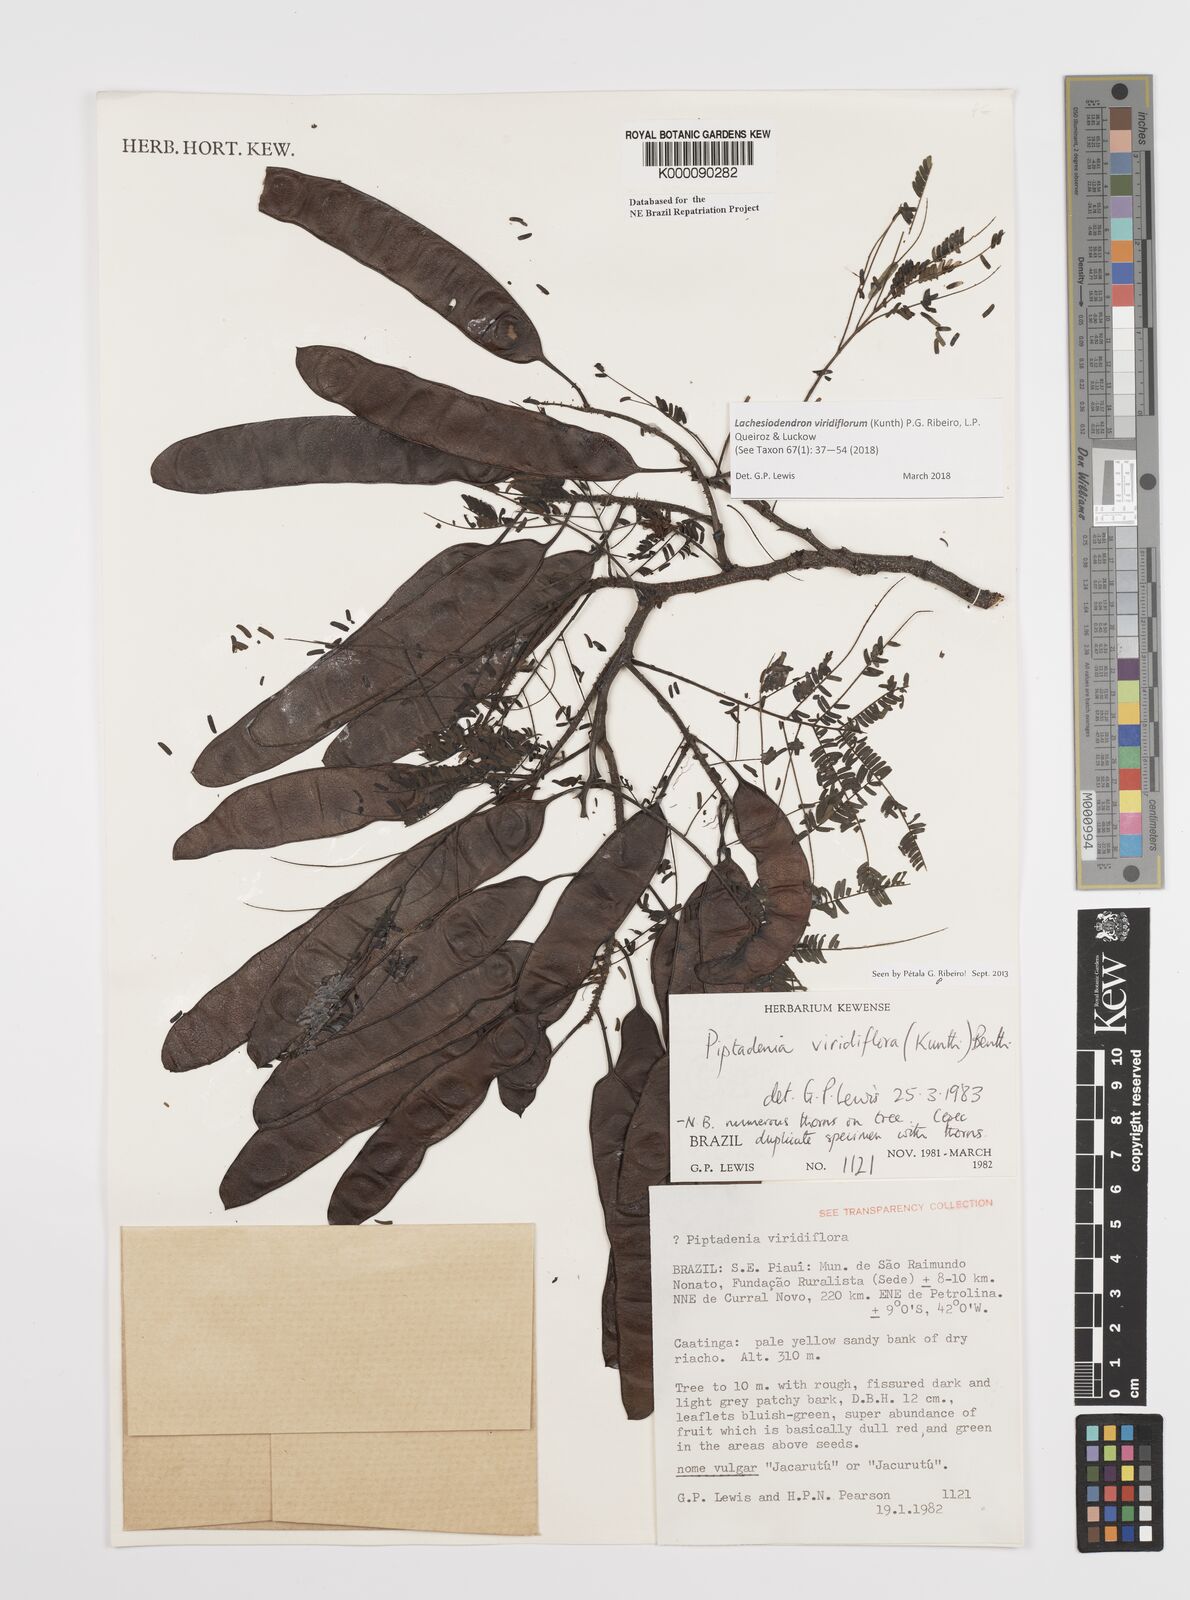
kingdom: Plantae
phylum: Tracheophyta
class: Magnoliopsida
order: Fabales
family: Fabaceae
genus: Lachesiodendron
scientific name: Lachesiodendron viridiflorum
